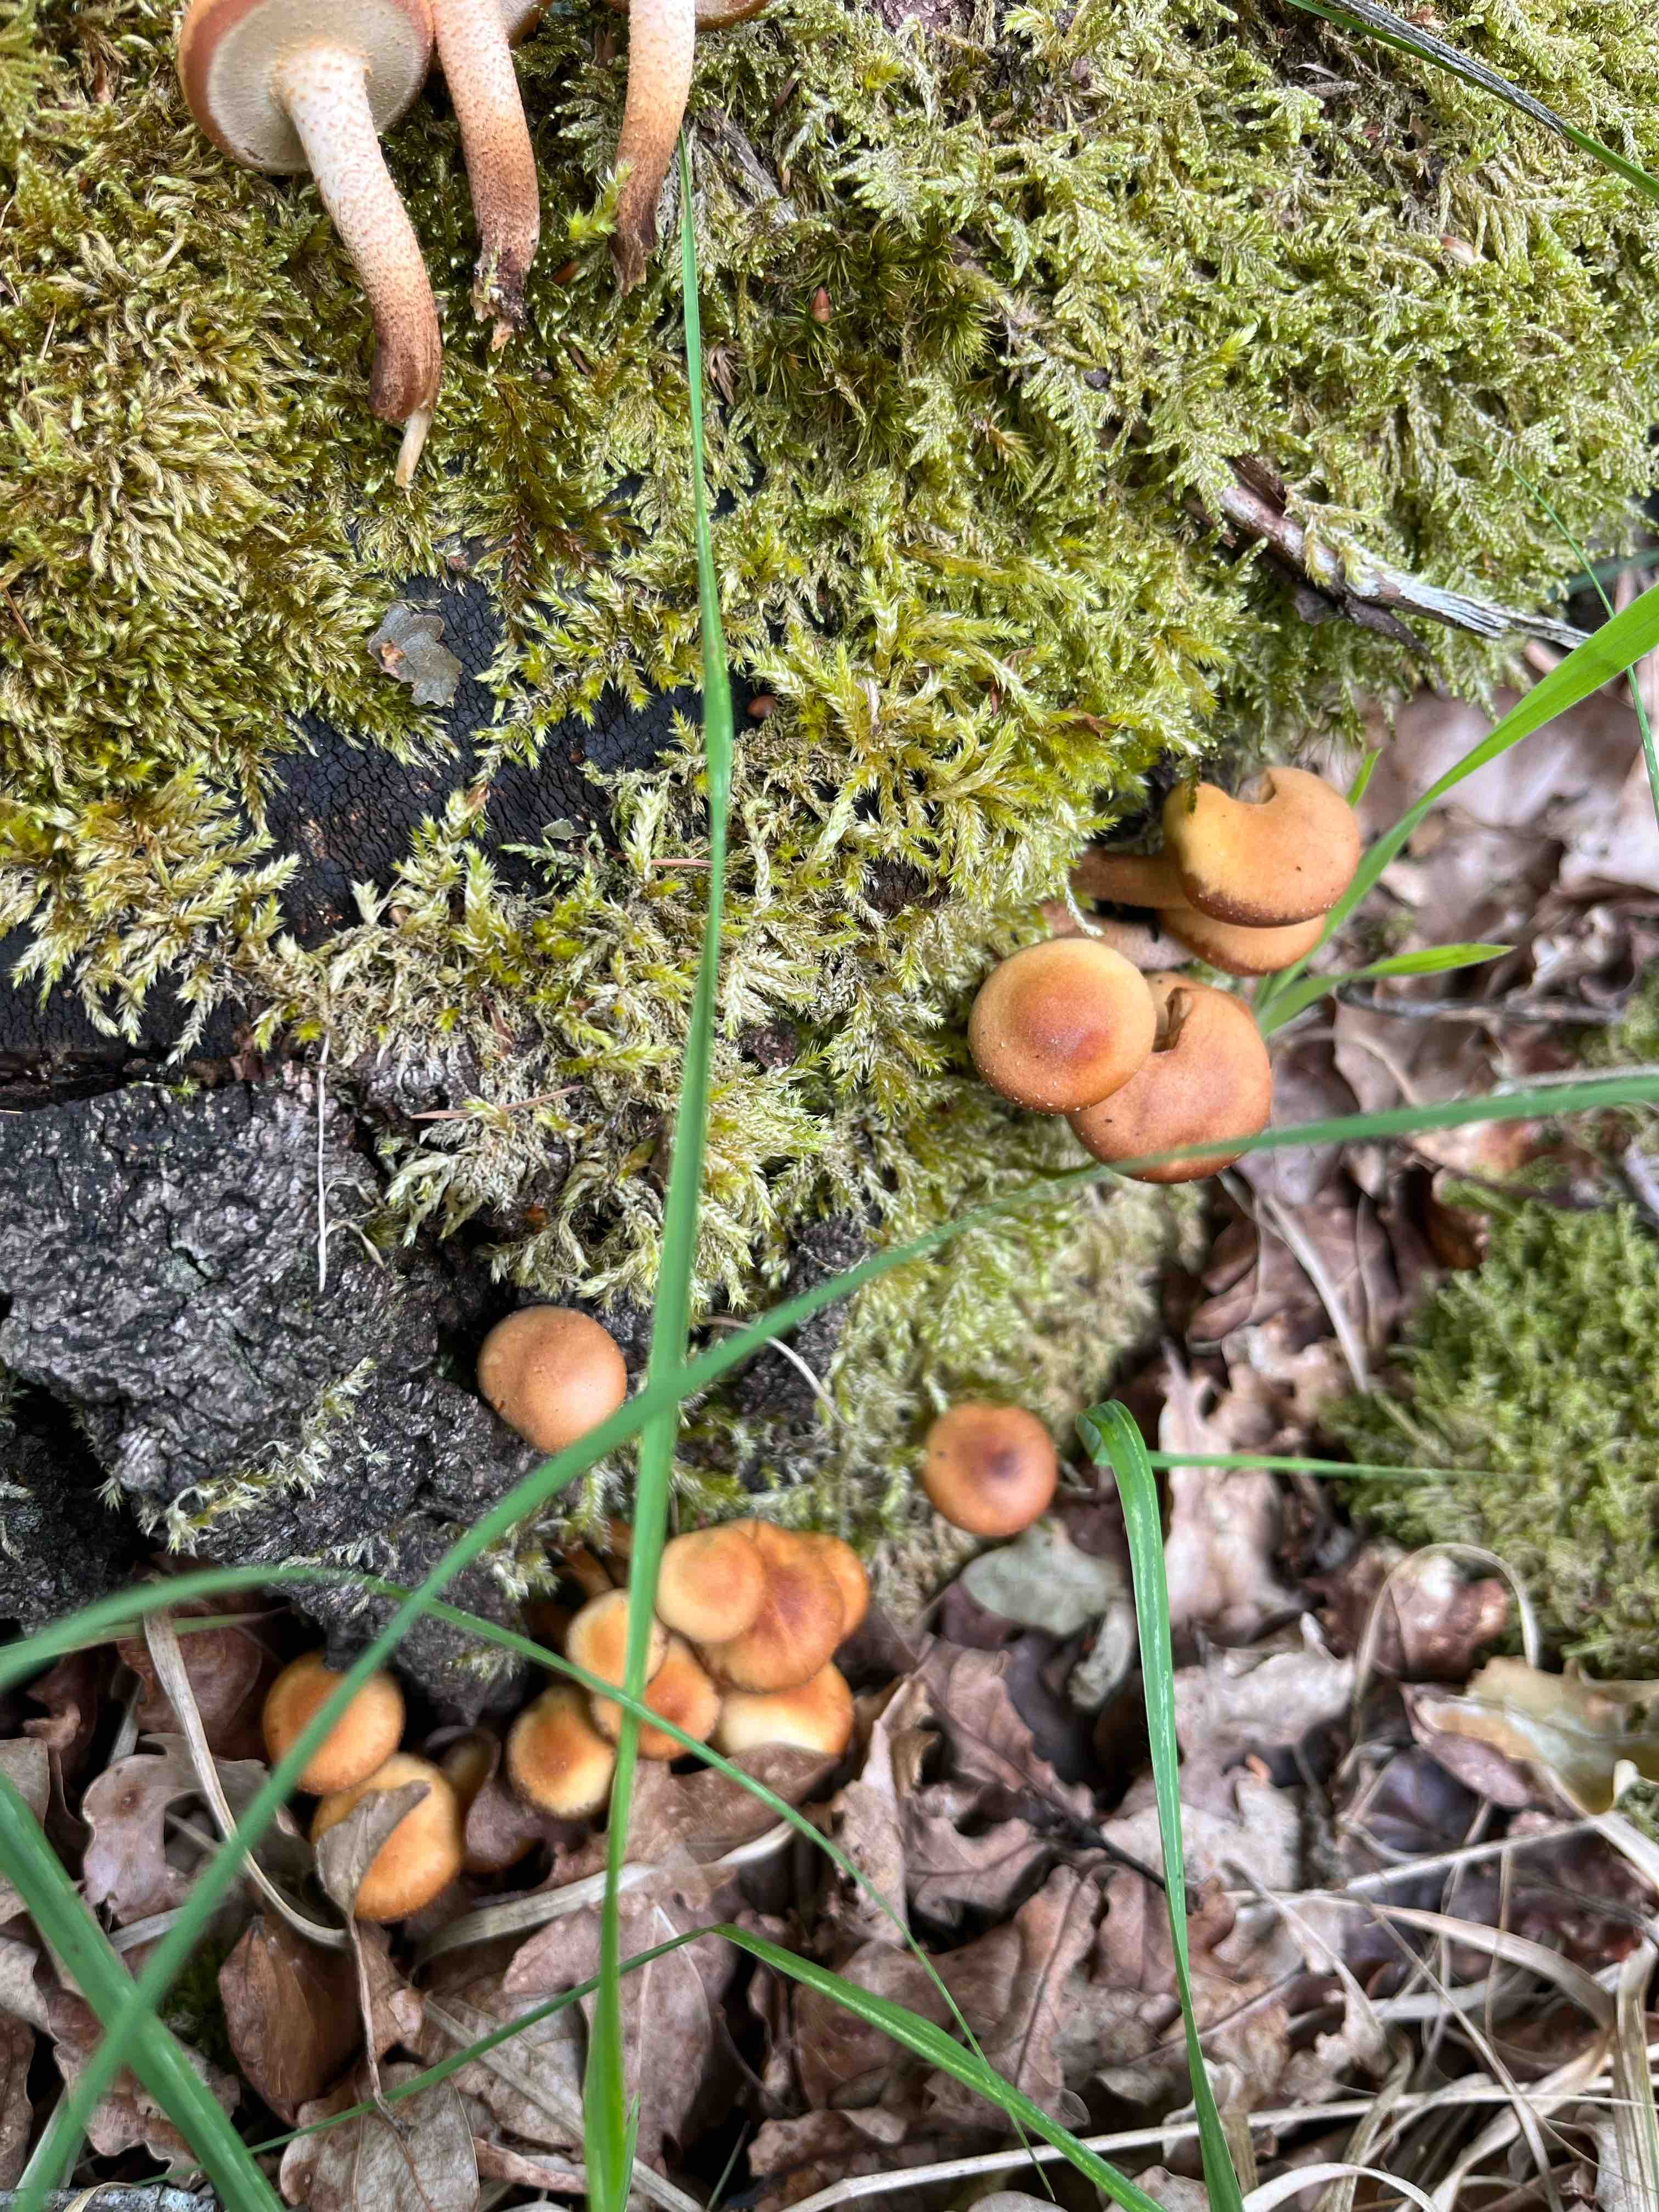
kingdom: Fungi
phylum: Basidiomycota
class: Agaricomycetes
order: Agaricales
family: Strophariaceae
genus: Kuehneromyces
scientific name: Kuehneromyces mutabilis
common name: foranderlig skælhat
